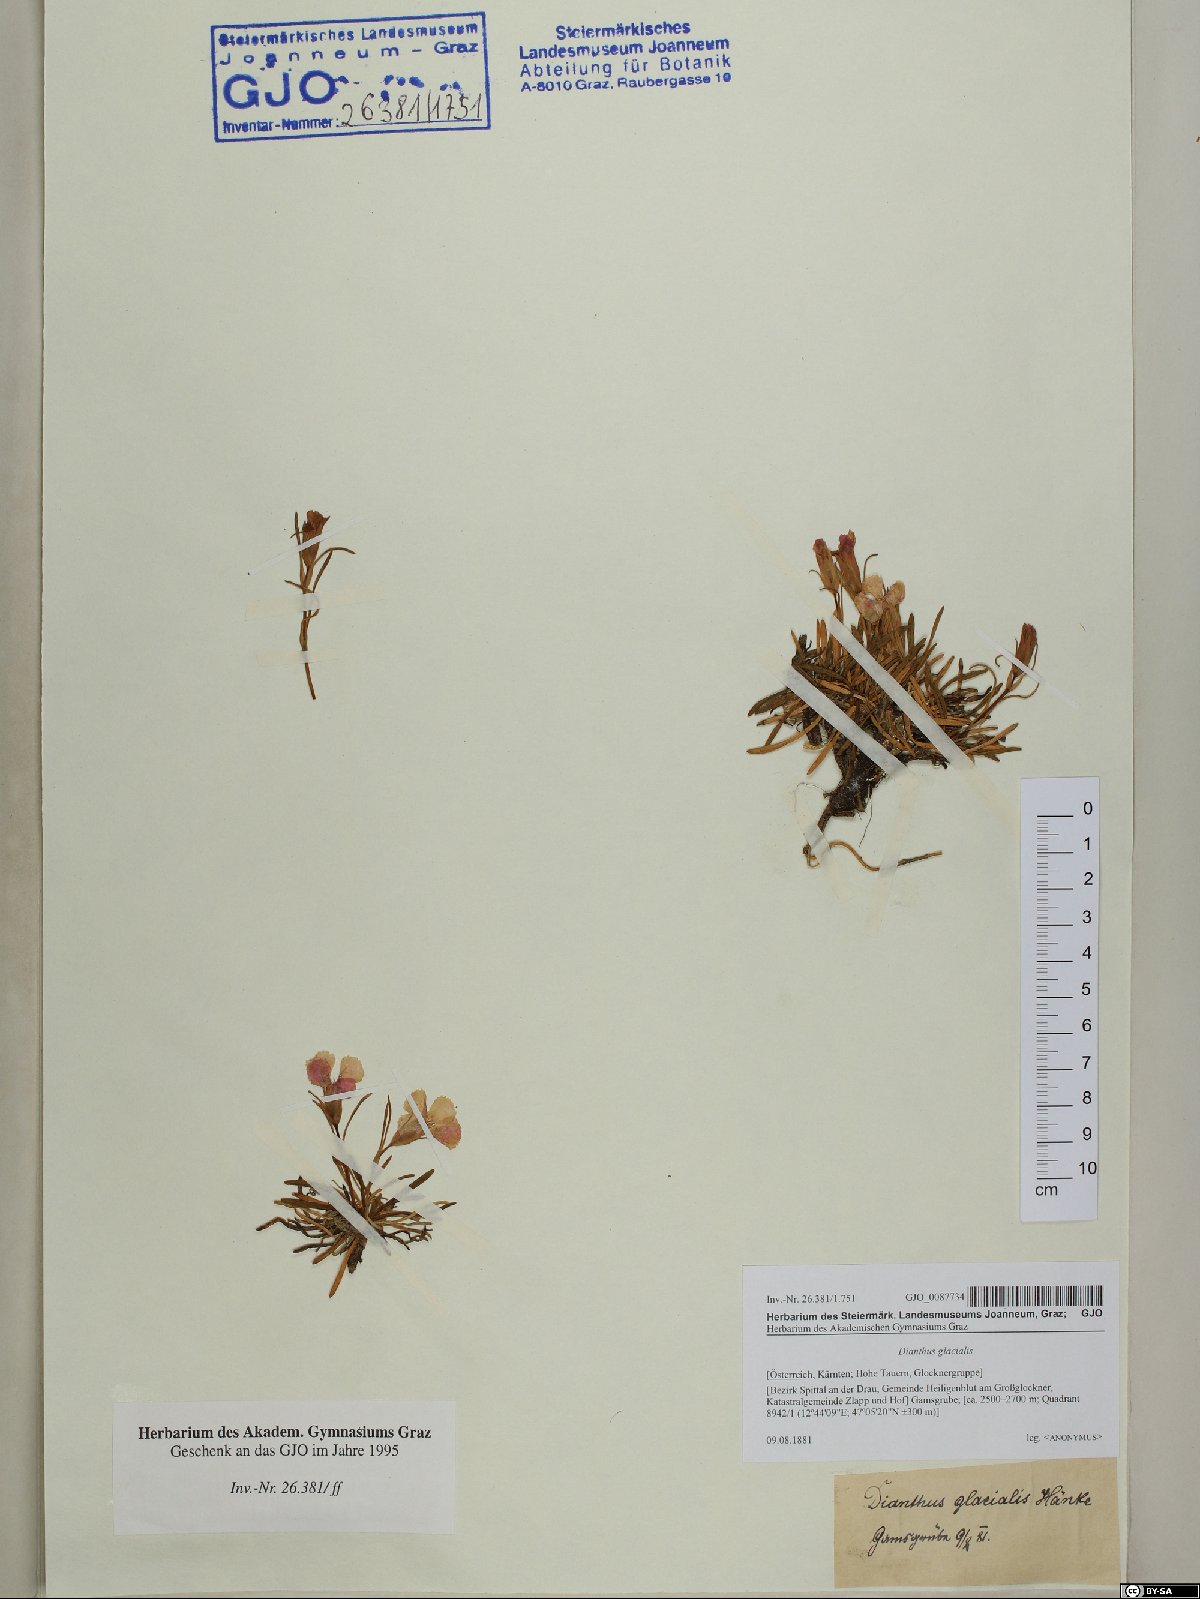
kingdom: Plantae
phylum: Tracheophyta
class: Magnoliopsida
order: Caryophyllales
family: Caryophyllaceae
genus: Dianthus
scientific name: Dianthus glacialis
